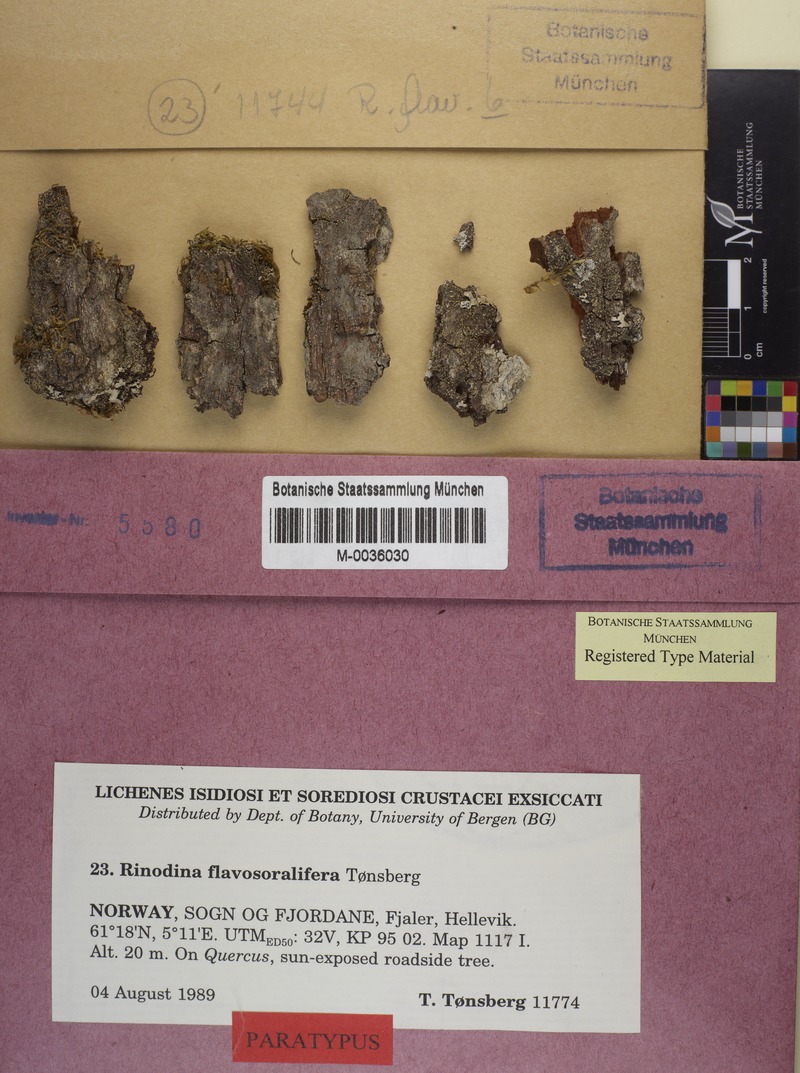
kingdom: Fungi
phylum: Ascomycota
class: Lecanoromycetes
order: Caliciales
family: Physciaceae
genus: Rinodina
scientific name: Rinodina flavosoralifera
